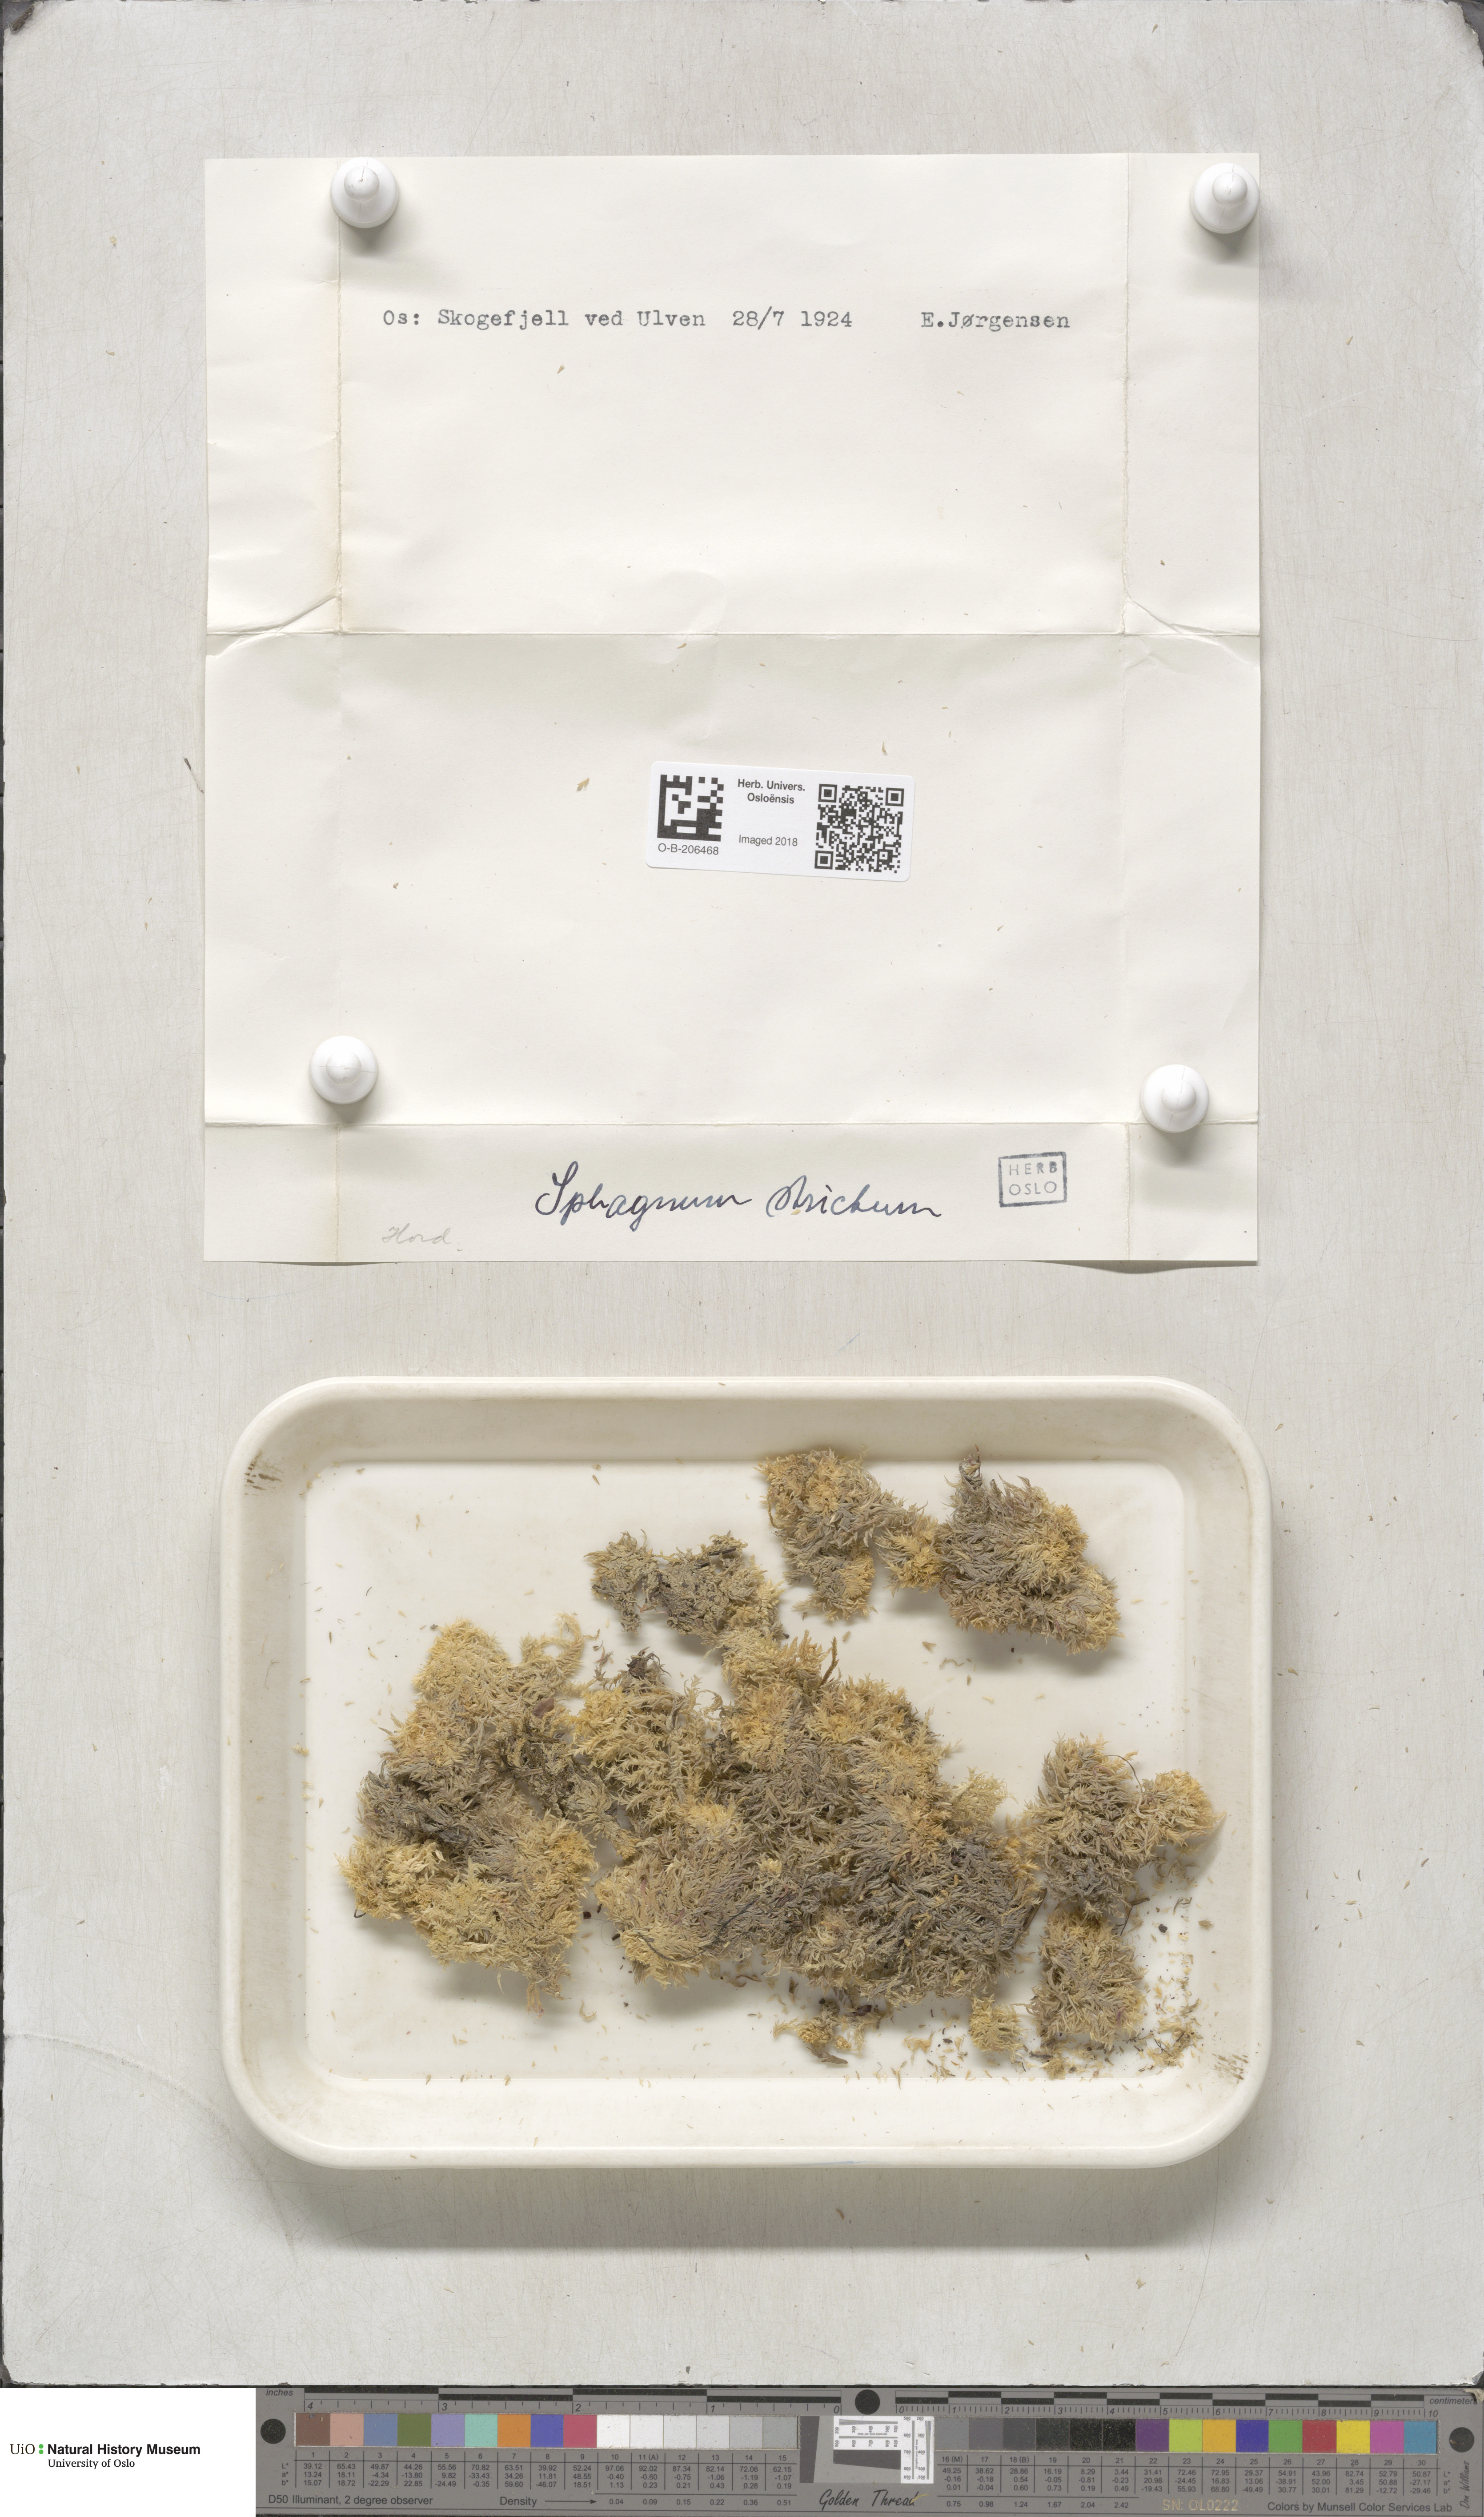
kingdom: Plantae
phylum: Bryophyta
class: Sphagnopsida
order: Sphagnales
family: Sphagnaceae
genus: Sphagnum
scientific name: Sphagnum strictum
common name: Pale bog-moss
